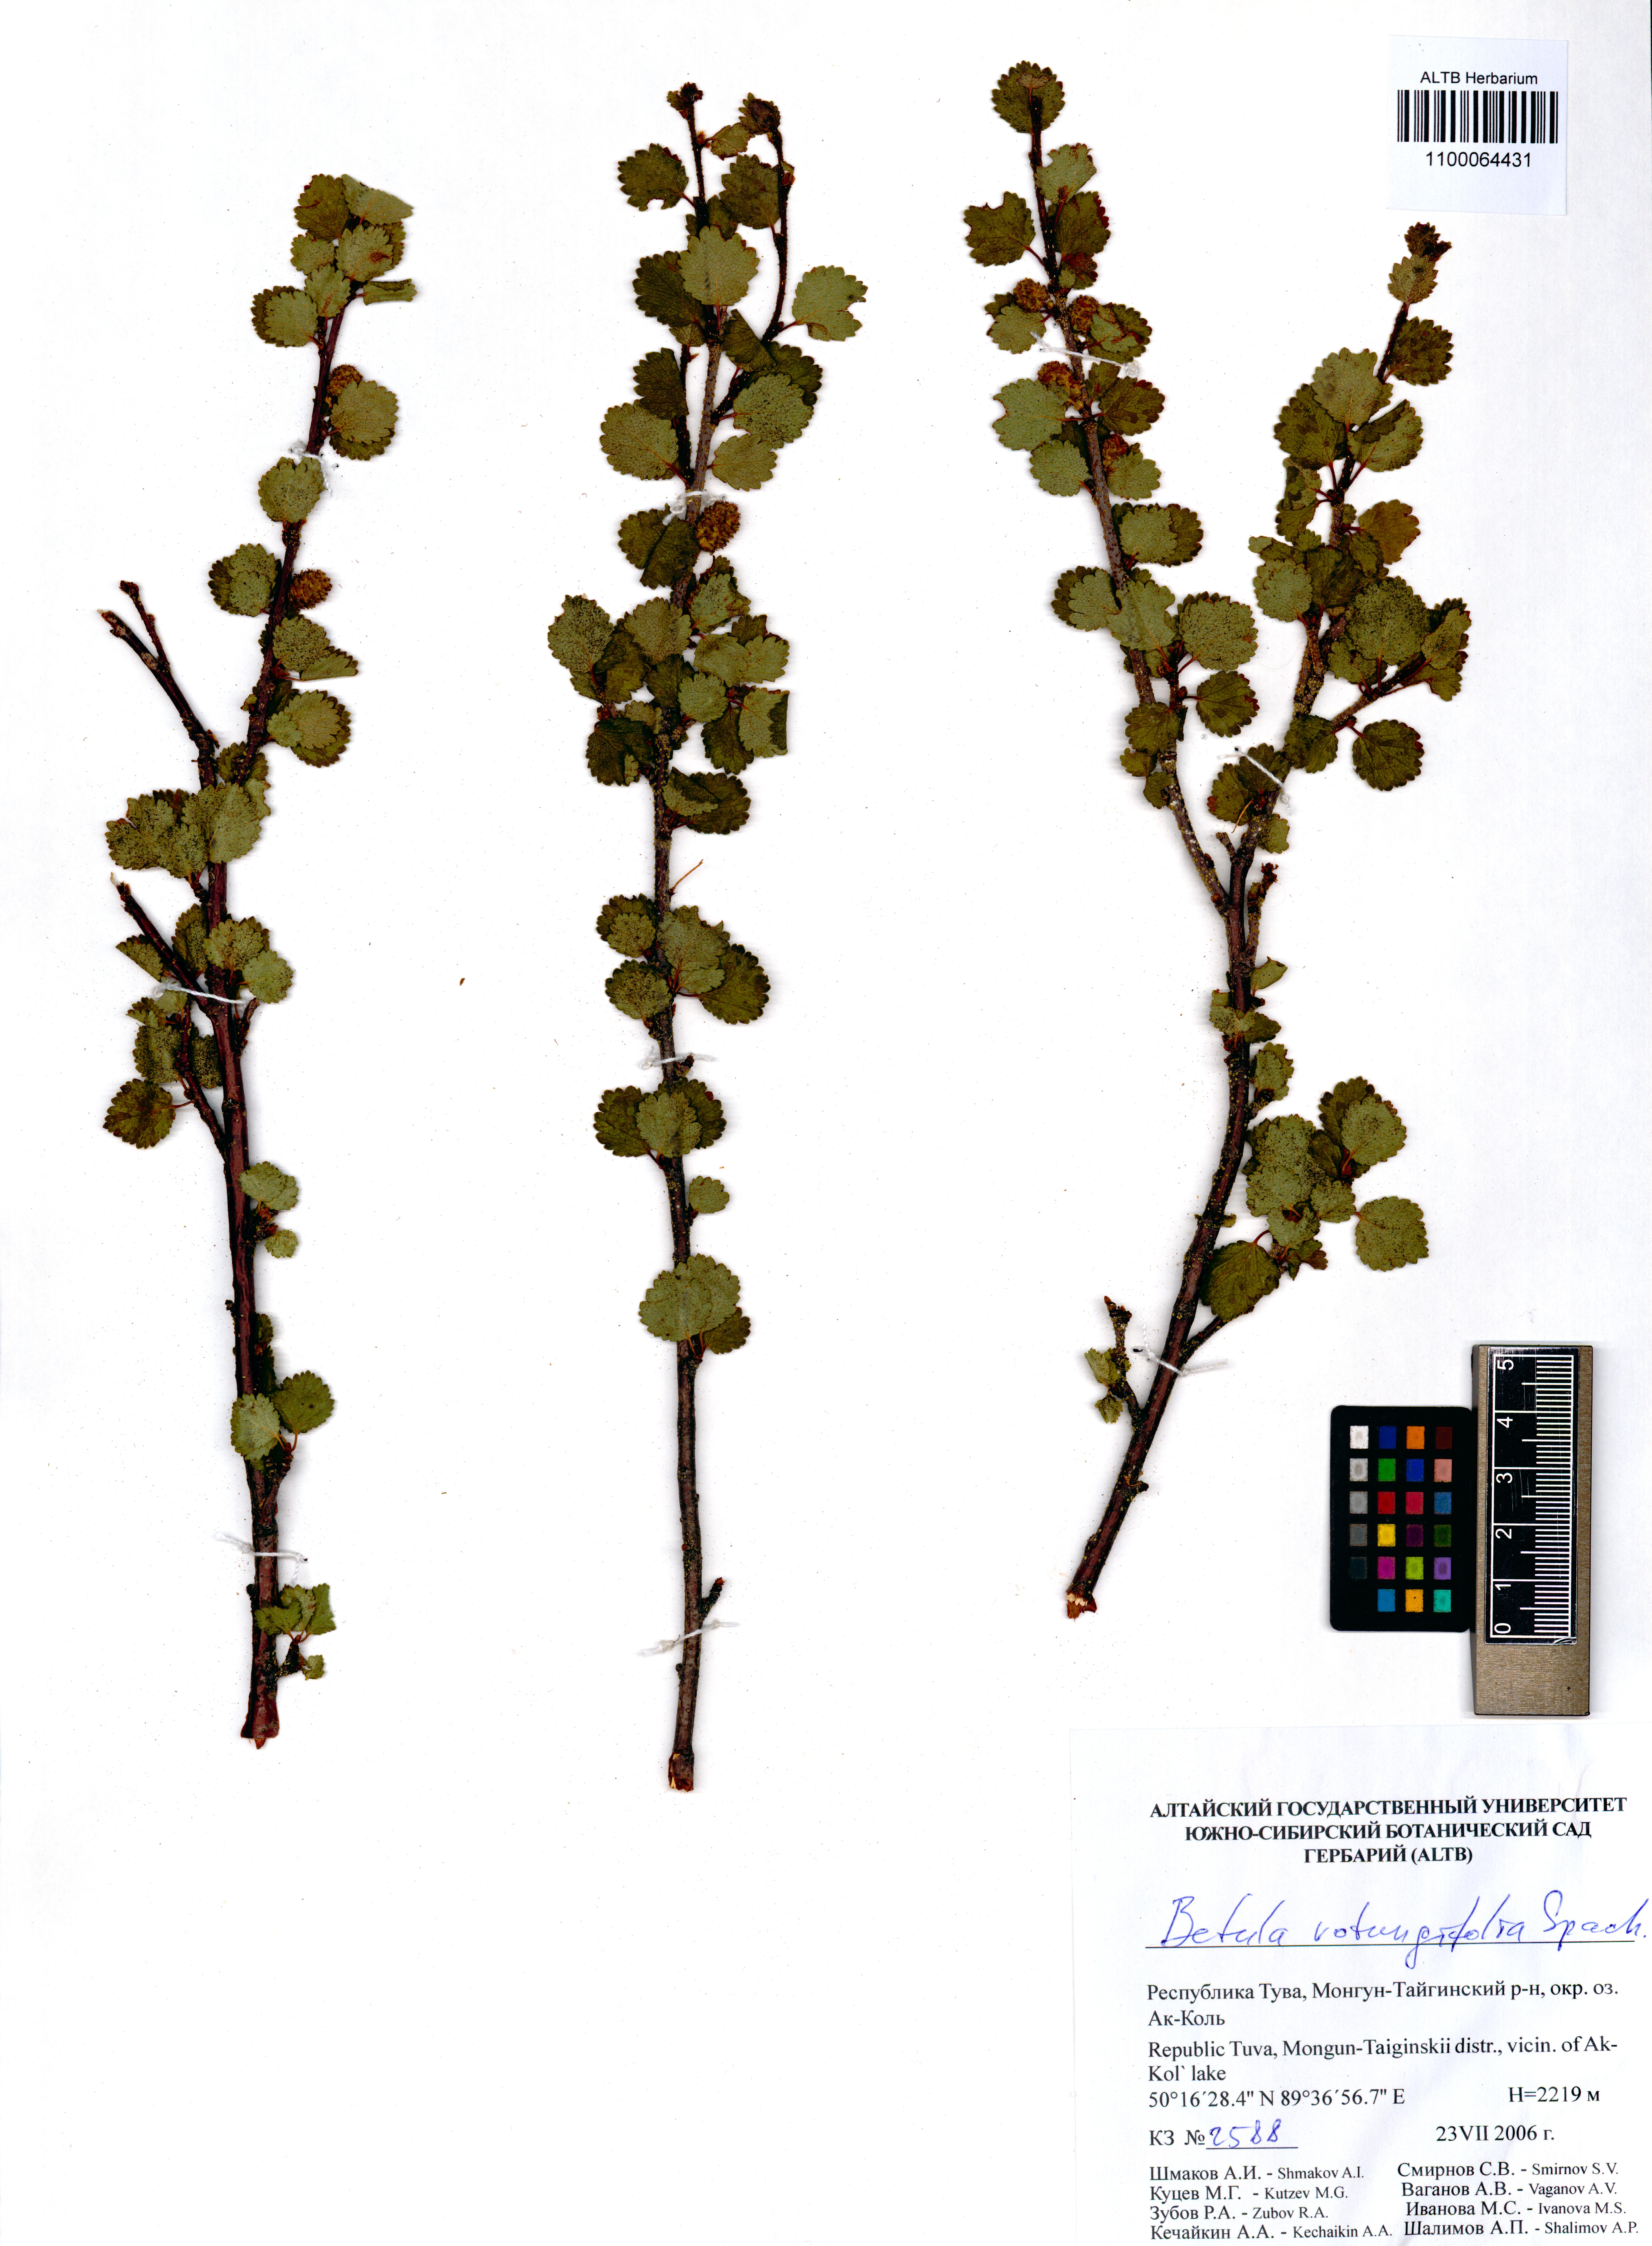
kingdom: Plantae
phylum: Tracheophyta
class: Magnoliopsida
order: Fagales
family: Betulaceae
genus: Betula
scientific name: Betula glandulosa
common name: Dwarf birch
